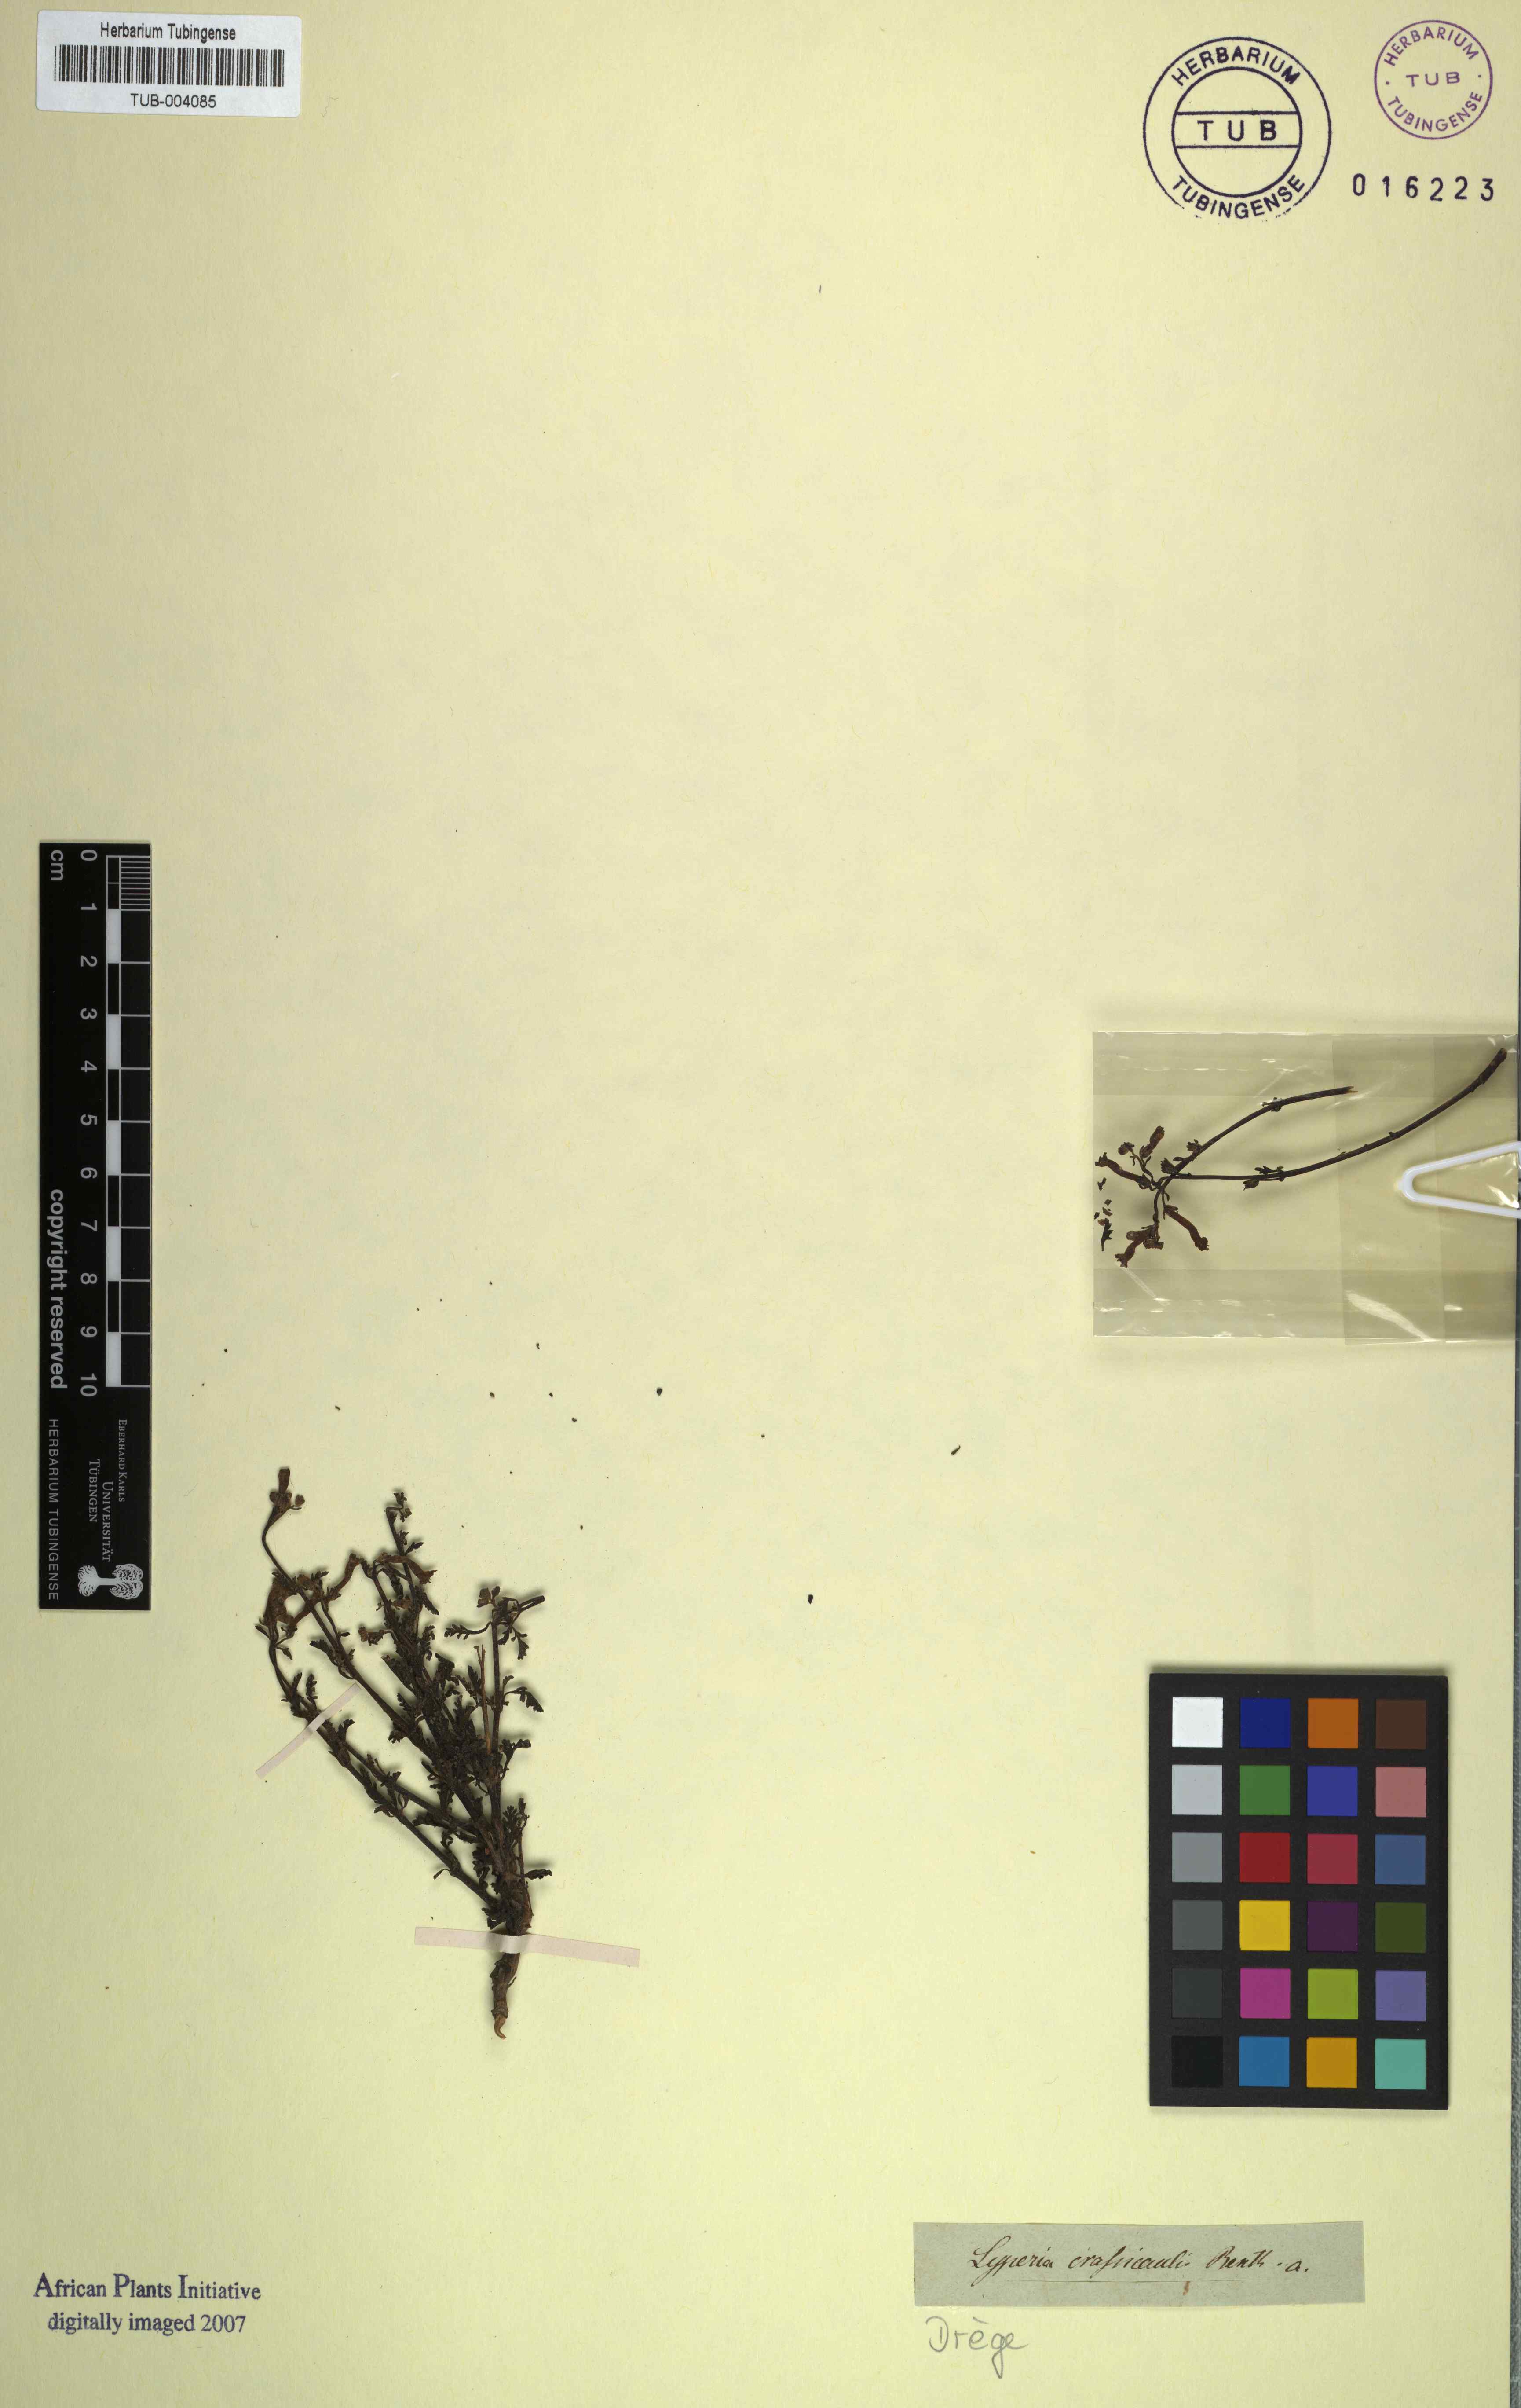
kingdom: Plantae
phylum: Tracheophyta
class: Magnoliopsida
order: Lamiales
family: Scrophulariaceae
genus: Jamesbrittenia
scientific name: Jamesbrittenia crassicaulis
